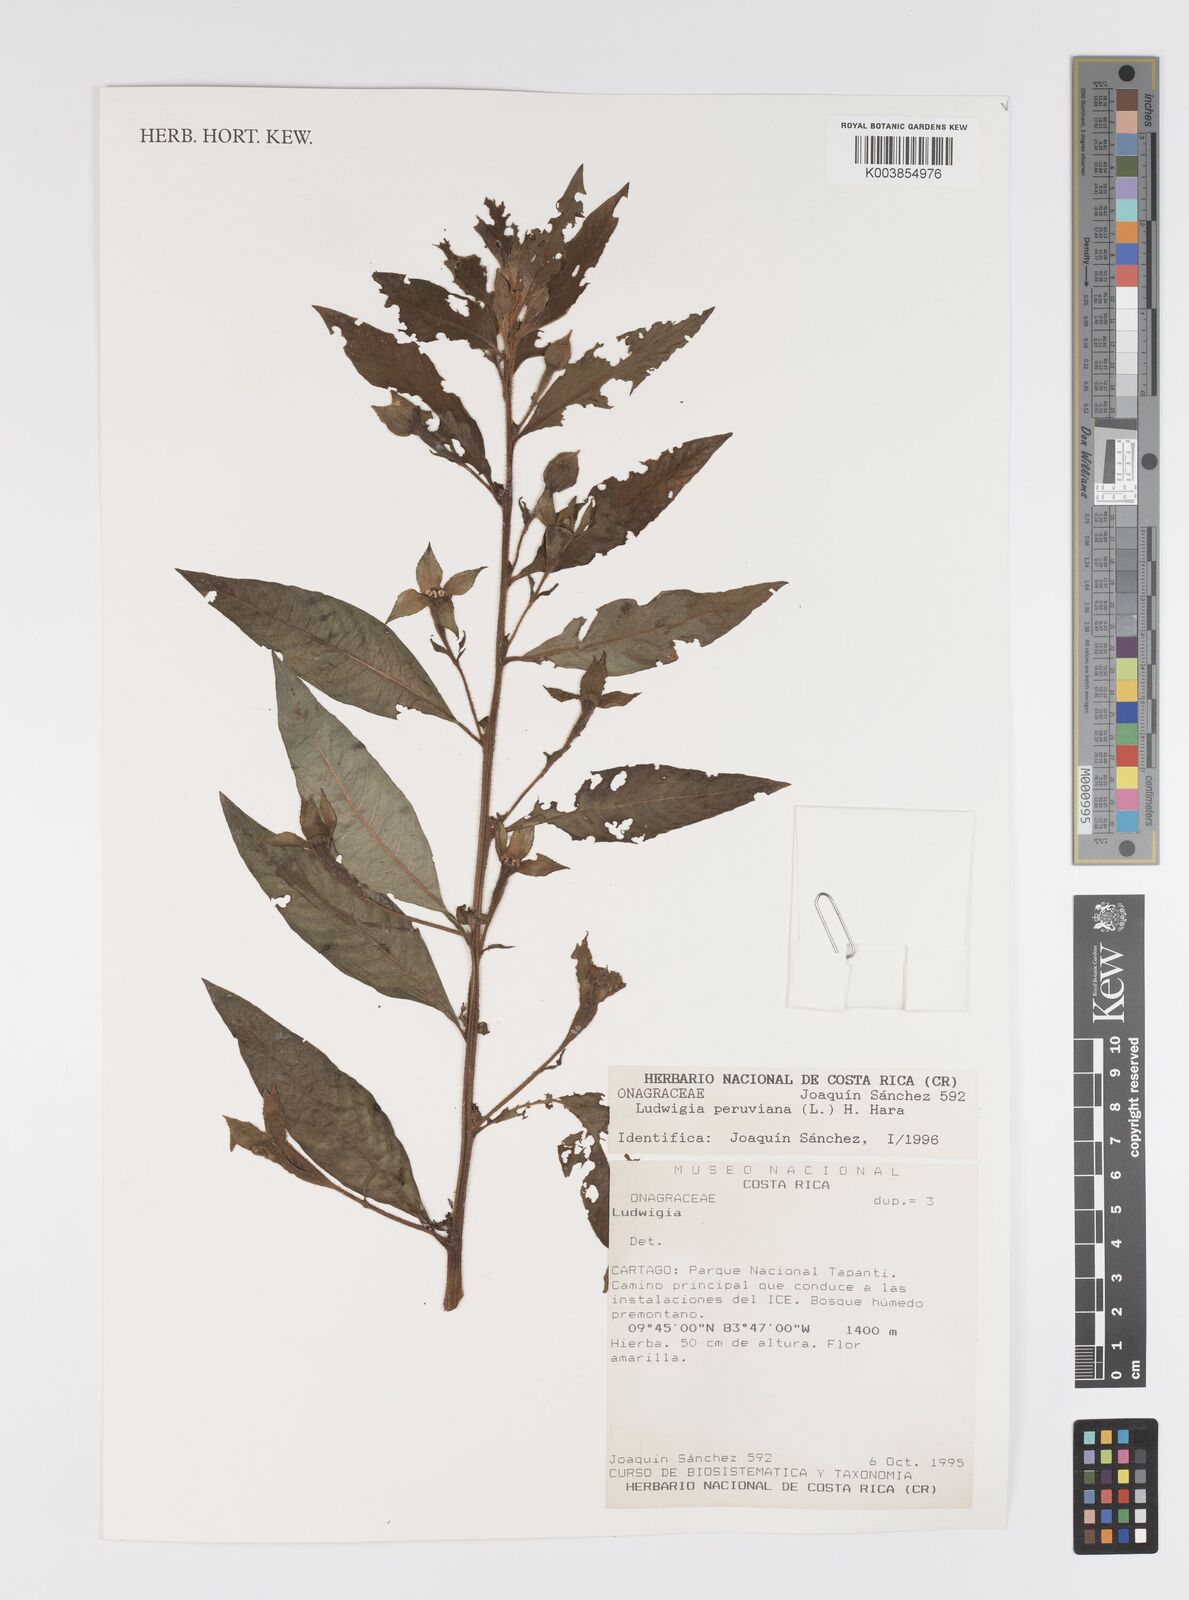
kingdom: Plantae
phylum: Tracheophyta
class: Magnoliopsida
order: Myrtales
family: Onagraceae
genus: Ludwigia
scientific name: Ludwigia peruviana
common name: Peruvian primrose-willow
